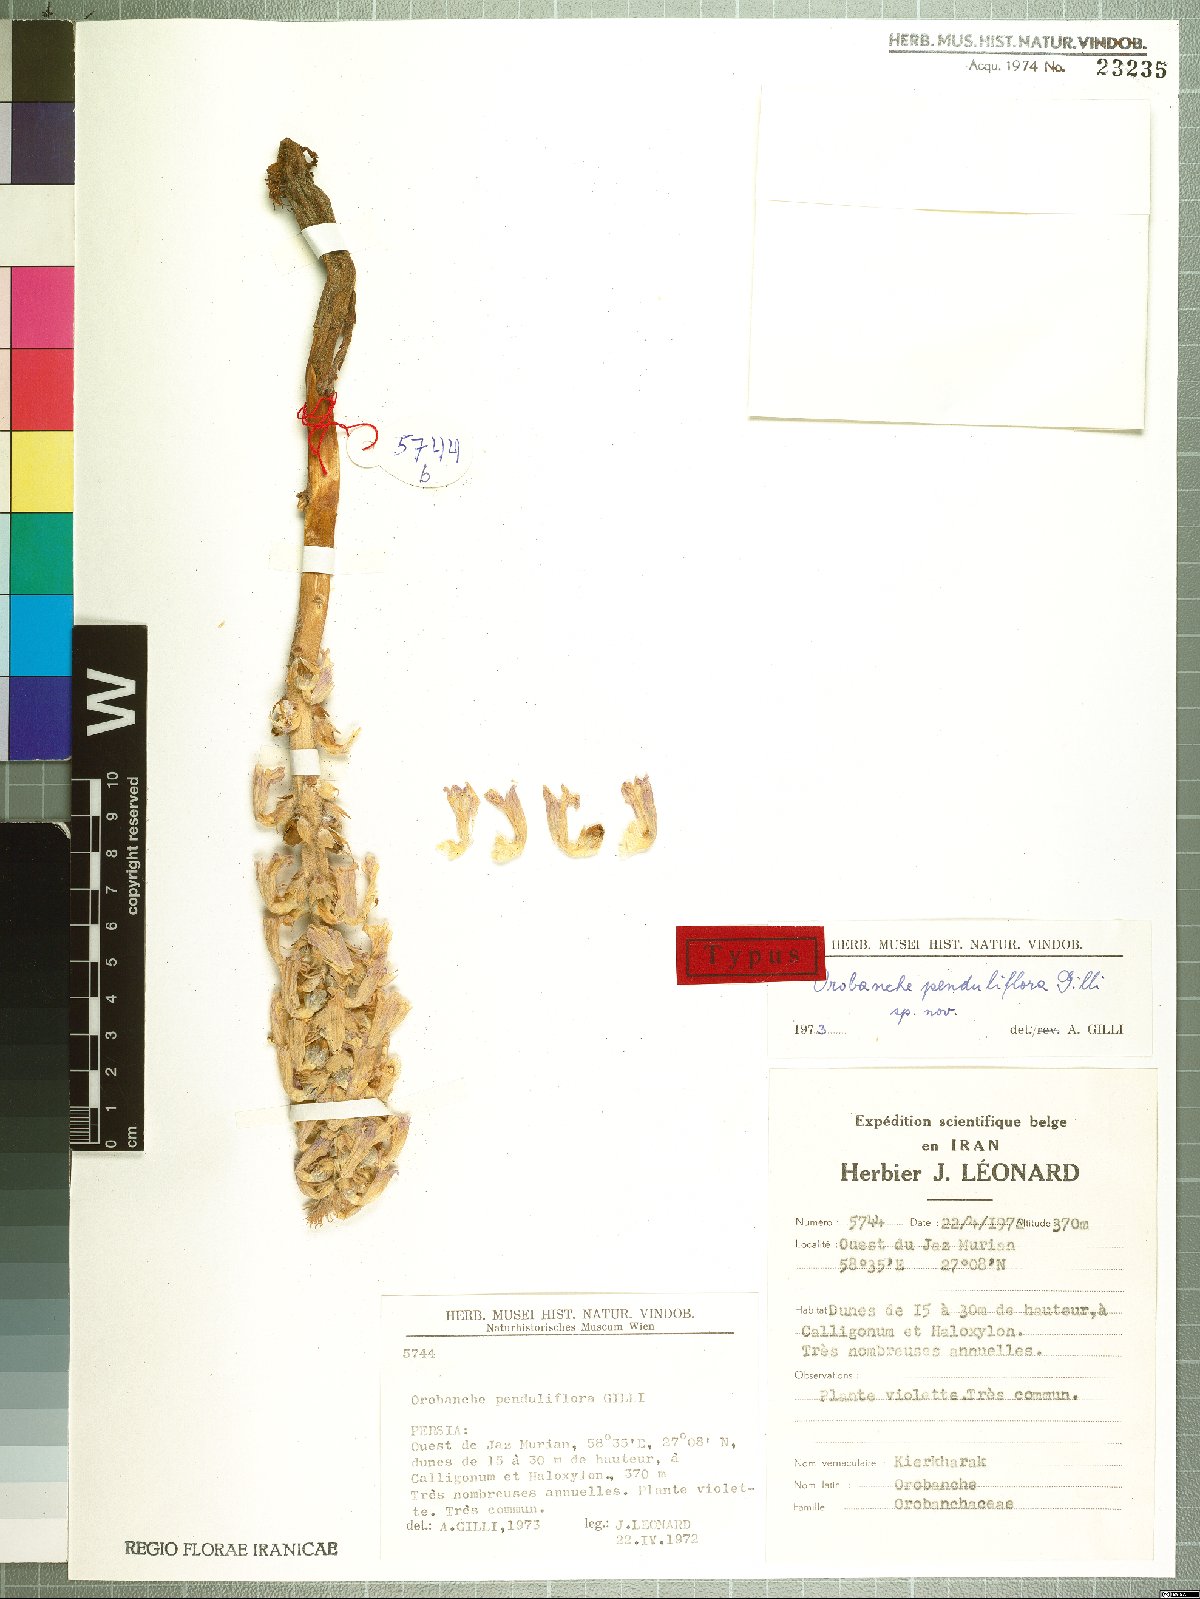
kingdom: Plantae
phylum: Tracheophyta
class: Magnoliopsida
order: Lamiales
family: Orobanchaceae
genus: Phelipanche
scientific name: Phelipanche penduliflora
